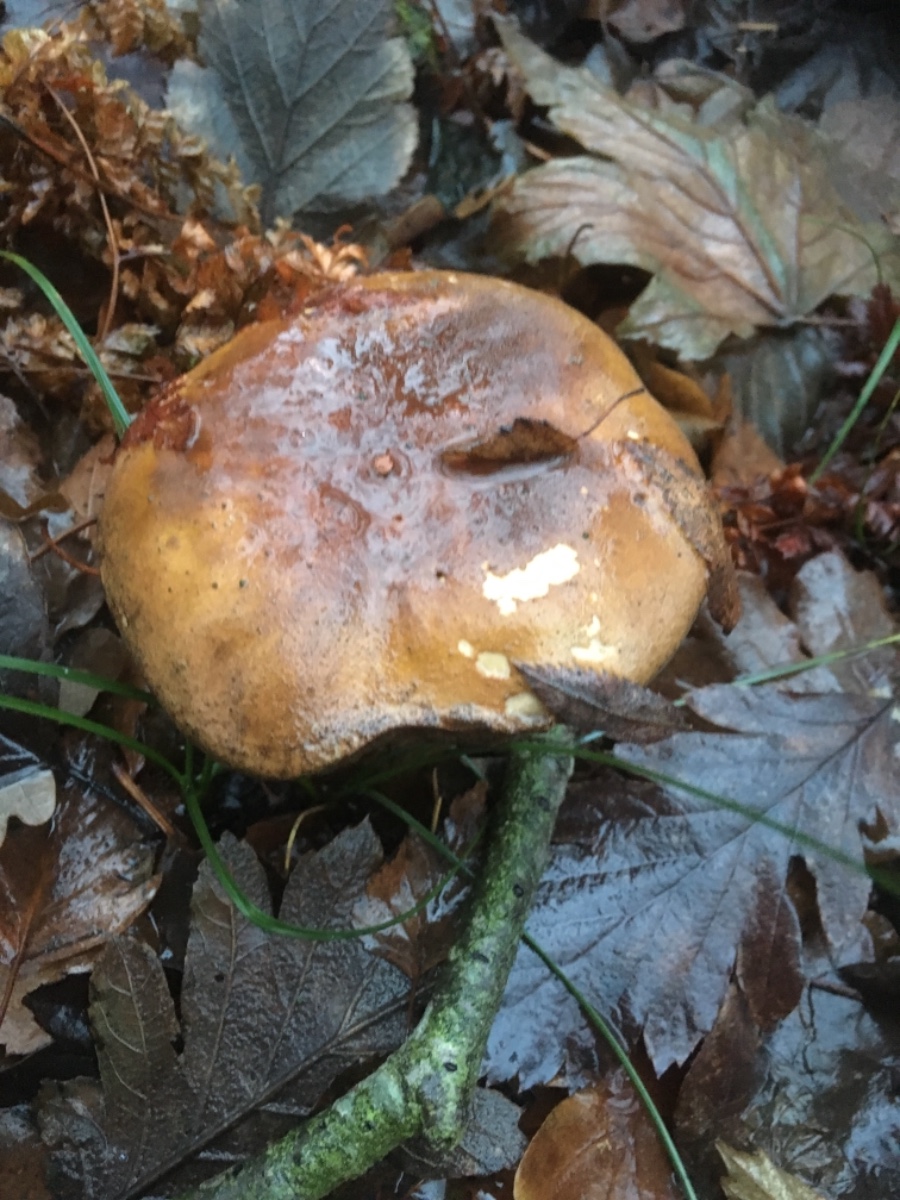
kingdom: Fungi
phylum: Basidiomycota
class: Agaricomycetes
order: Boletales
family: Boletaceae
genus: Imleria
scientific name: Imleria badia
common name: brunstokket rørhat
